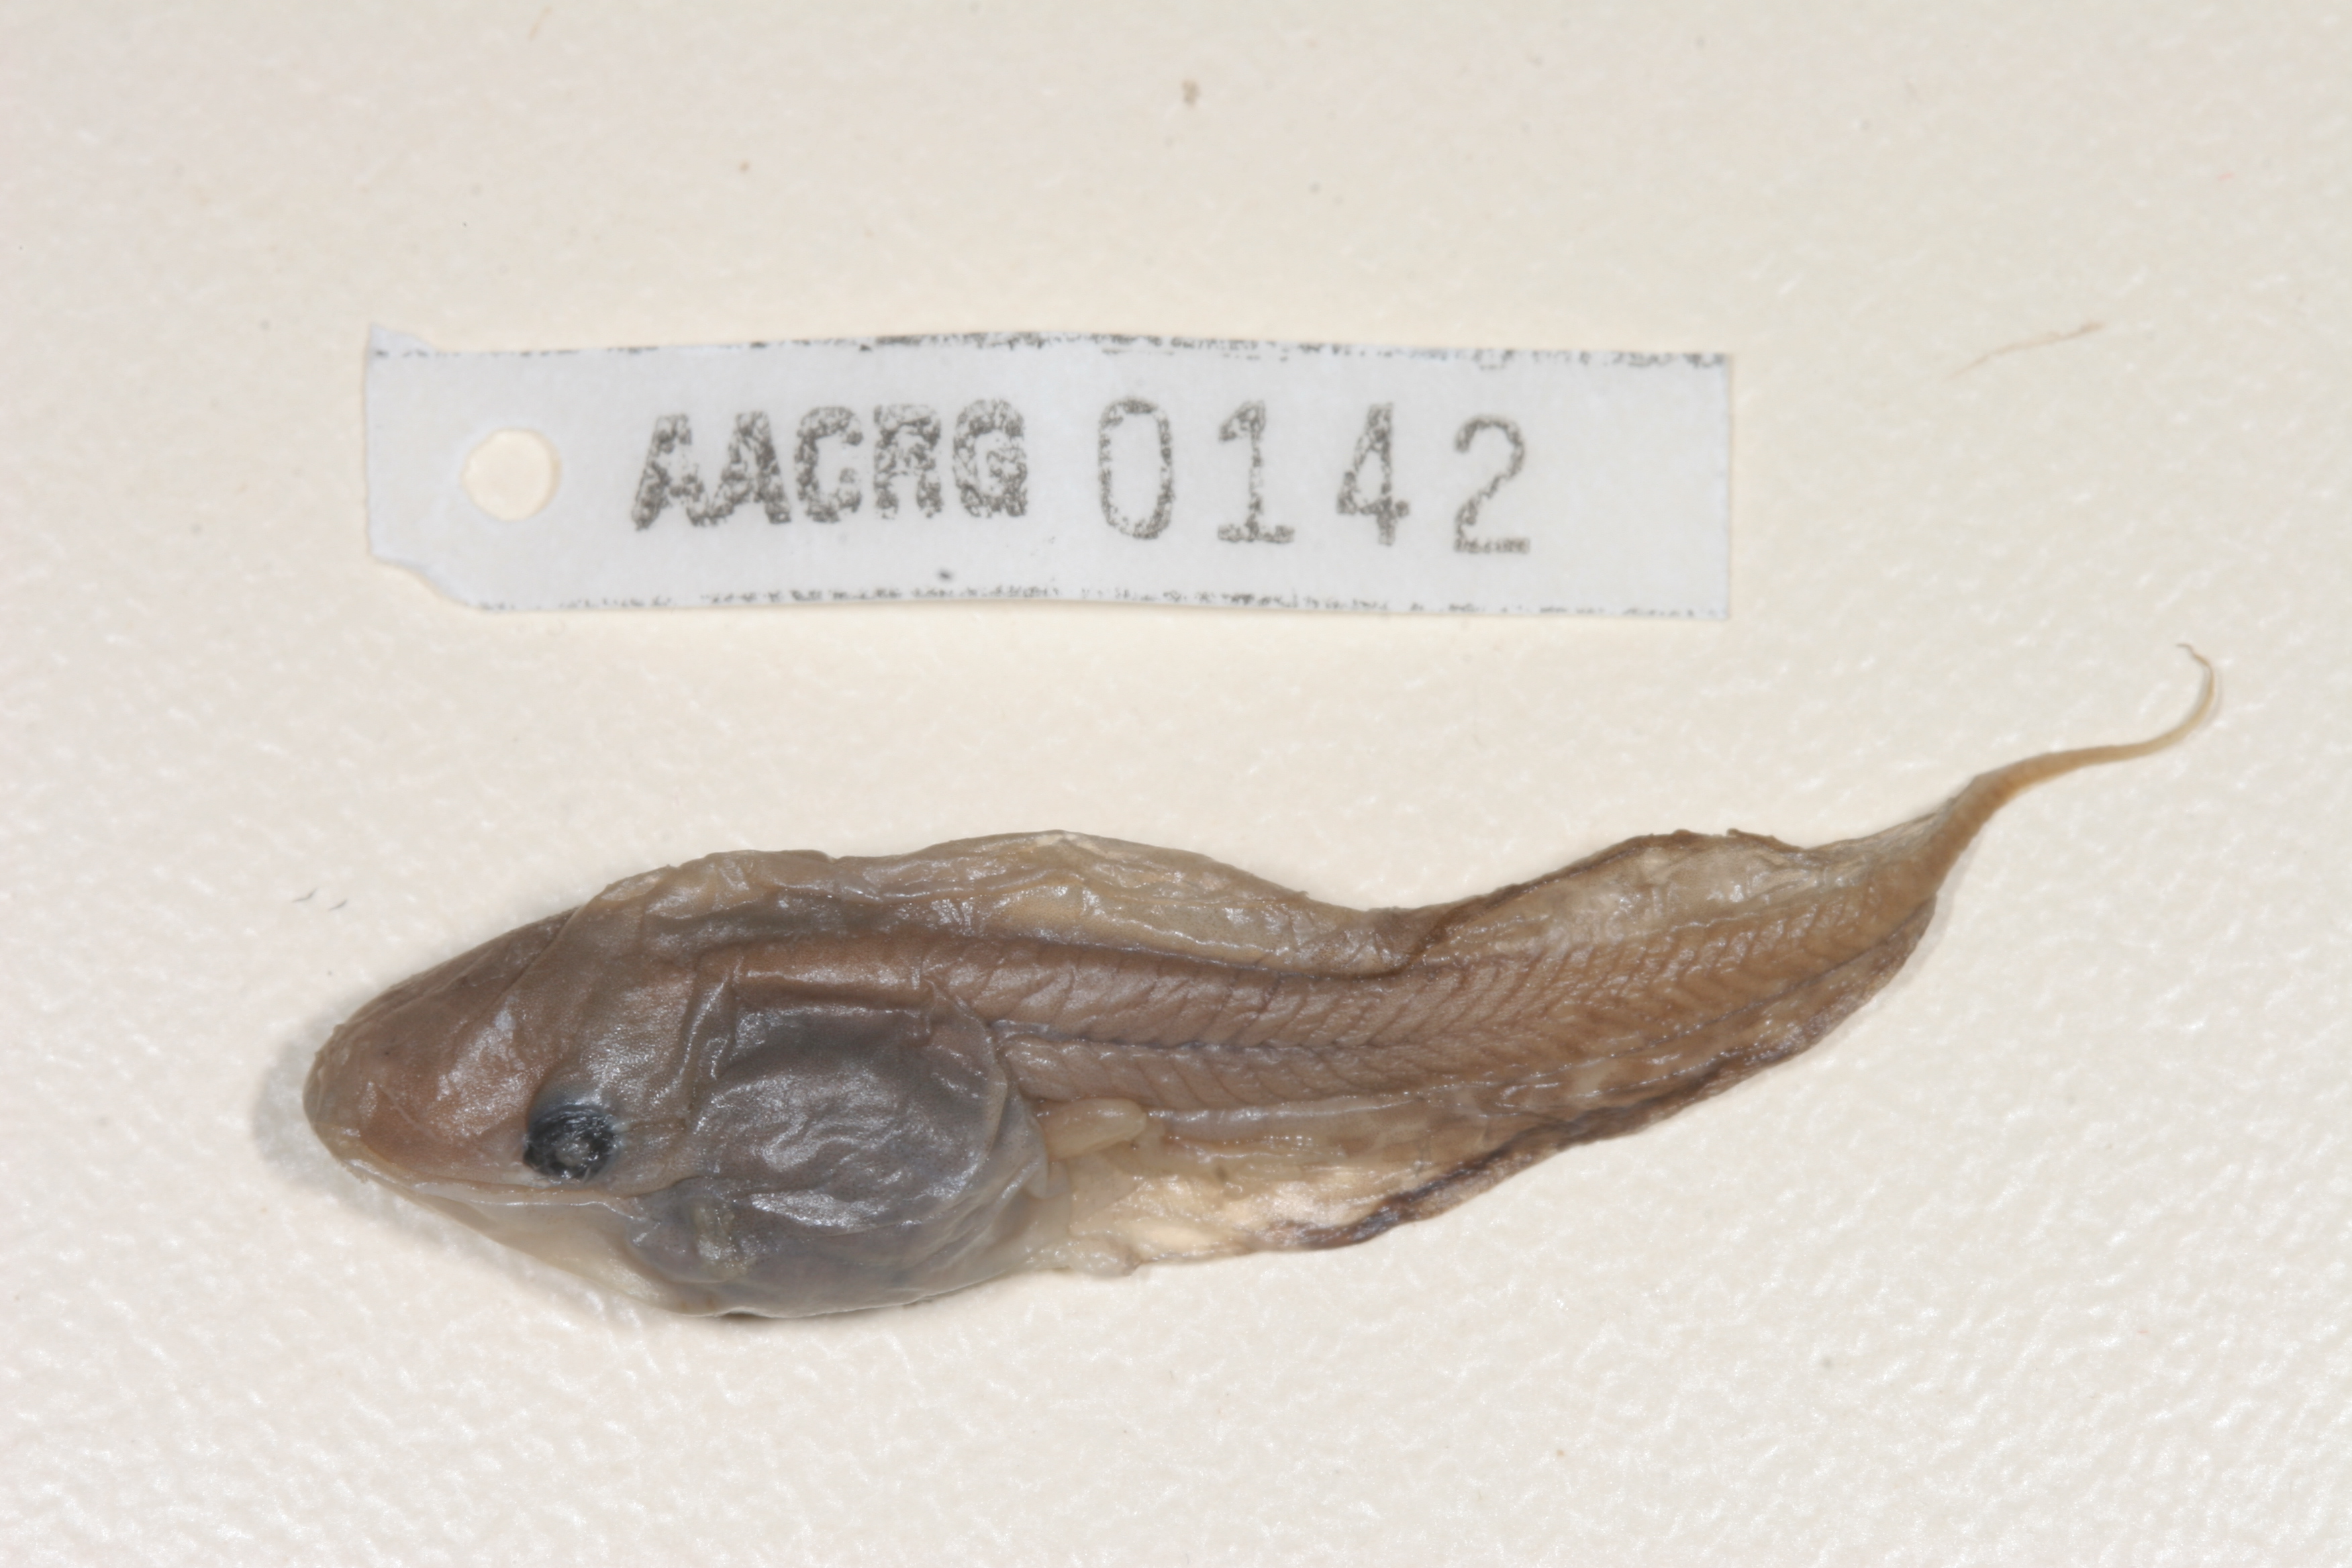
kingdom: Animalia
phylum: Chordata
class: Amphibia
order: Anura
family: Hyperoliidae
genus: Phlyctimantis
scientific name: Phlyctimantis maculatus
